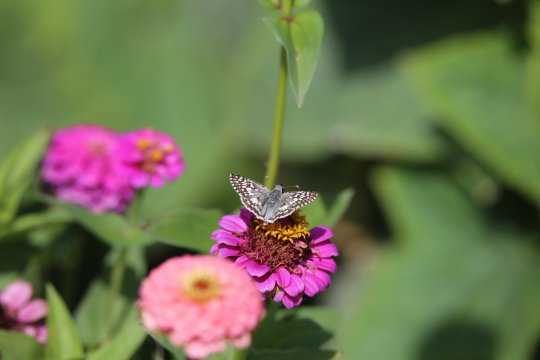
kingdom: Animalia
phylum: Arthropoda
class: Insecta
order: Lepidoptera
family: Hesperiidae
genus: Pyrgus
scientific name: Pyrgus communis
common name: Common Checkered-Skipper
